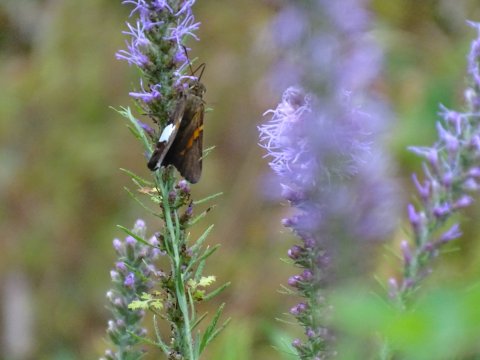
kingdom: Animalia
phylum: Arthropoda
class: Insecta
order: Lepidoptera
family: Hesperiidae
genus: Epargyreus
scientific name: Epargyreus clarus
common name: Silver-spotted Skipper
